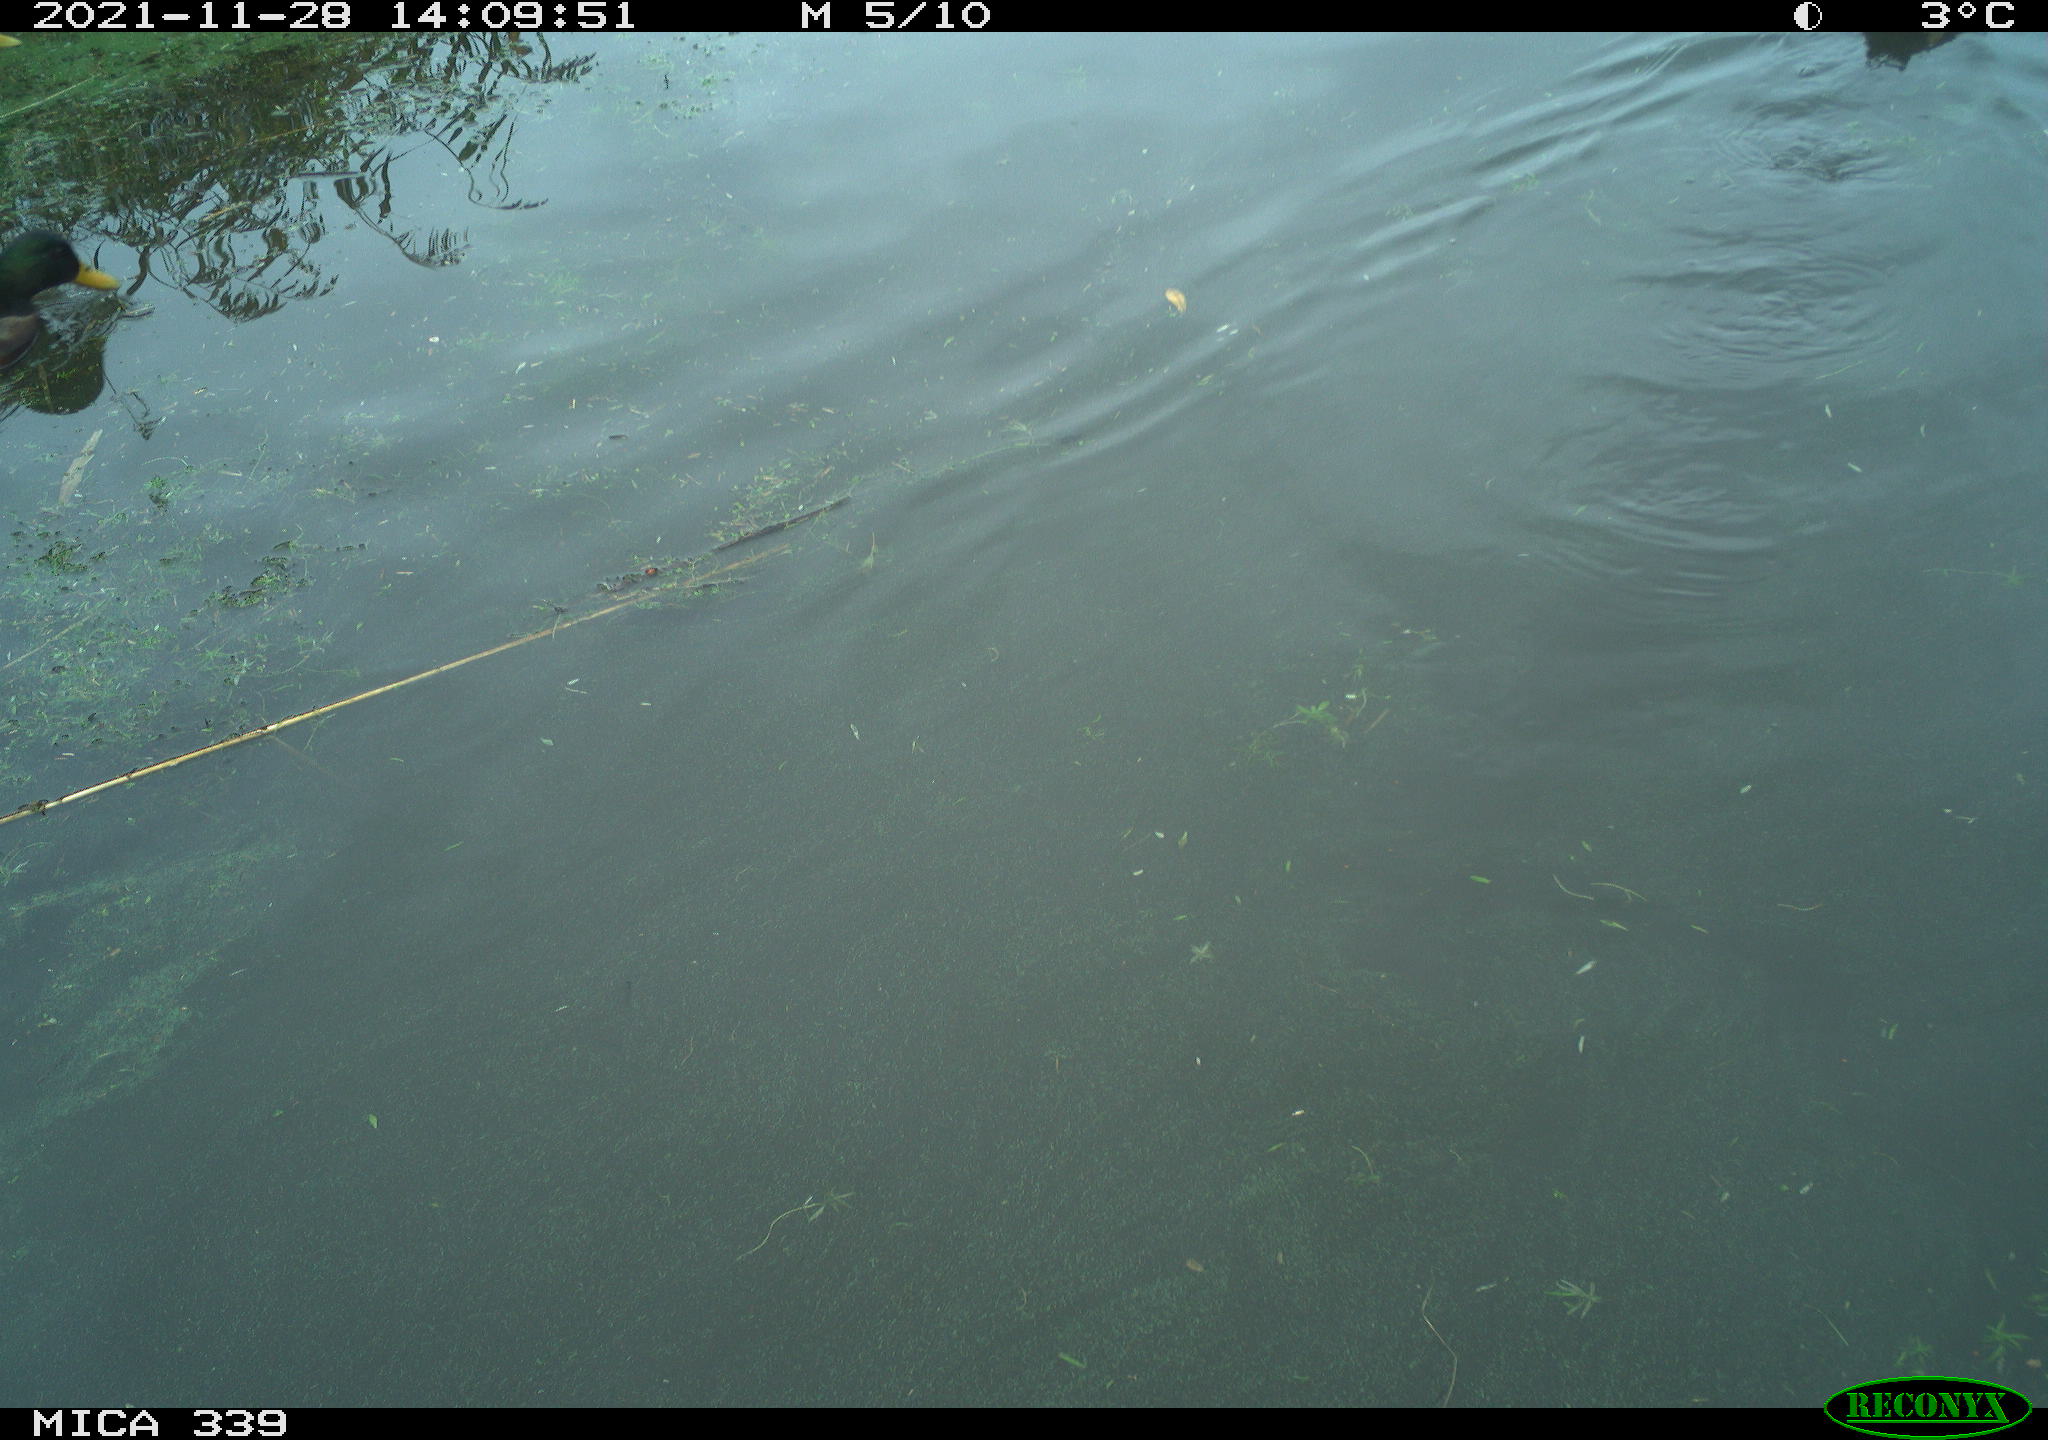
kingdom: Animalia
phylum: Chordata
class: Aves
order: Anseriformes
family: Anatidae
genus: Anas
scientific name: Anas platyrhynchos
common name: Mallard
